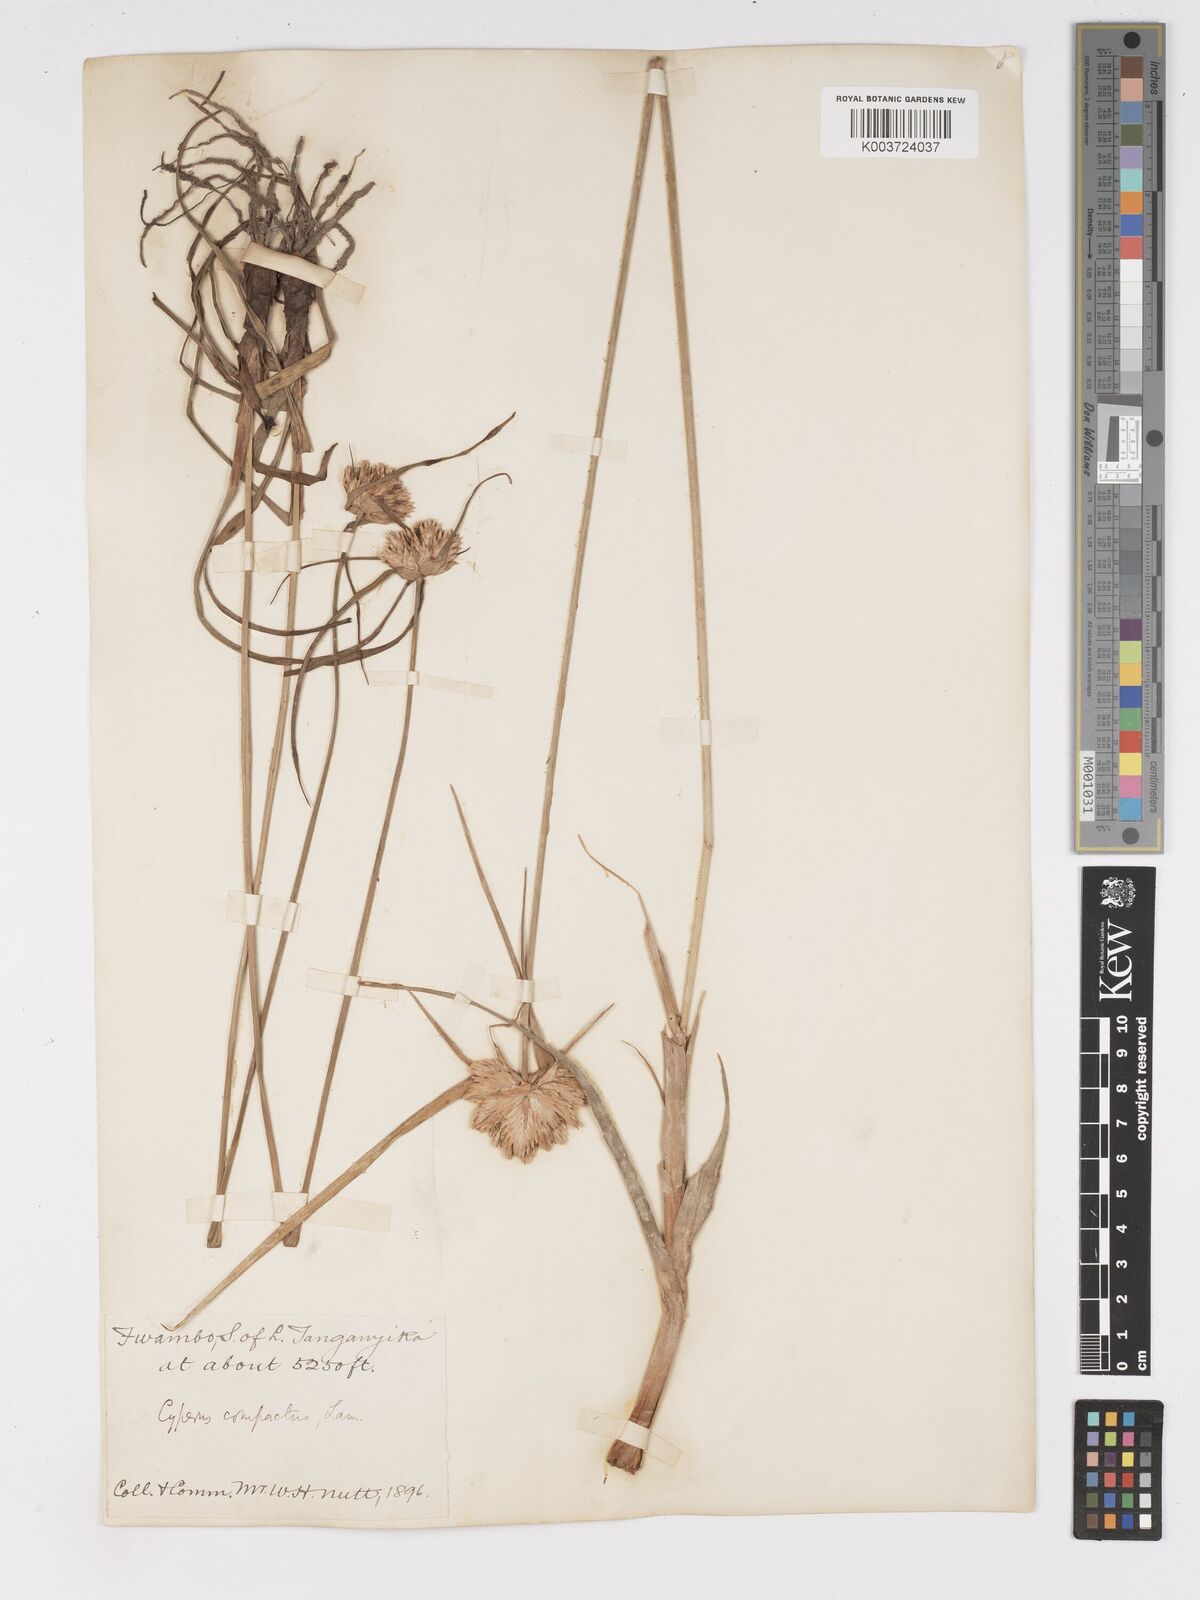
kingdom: Plantae
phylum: Tracheophyta
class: Liliopsida
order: Poales
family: Cyperaceae
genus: Cyperus
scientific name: Cyperus niveus
